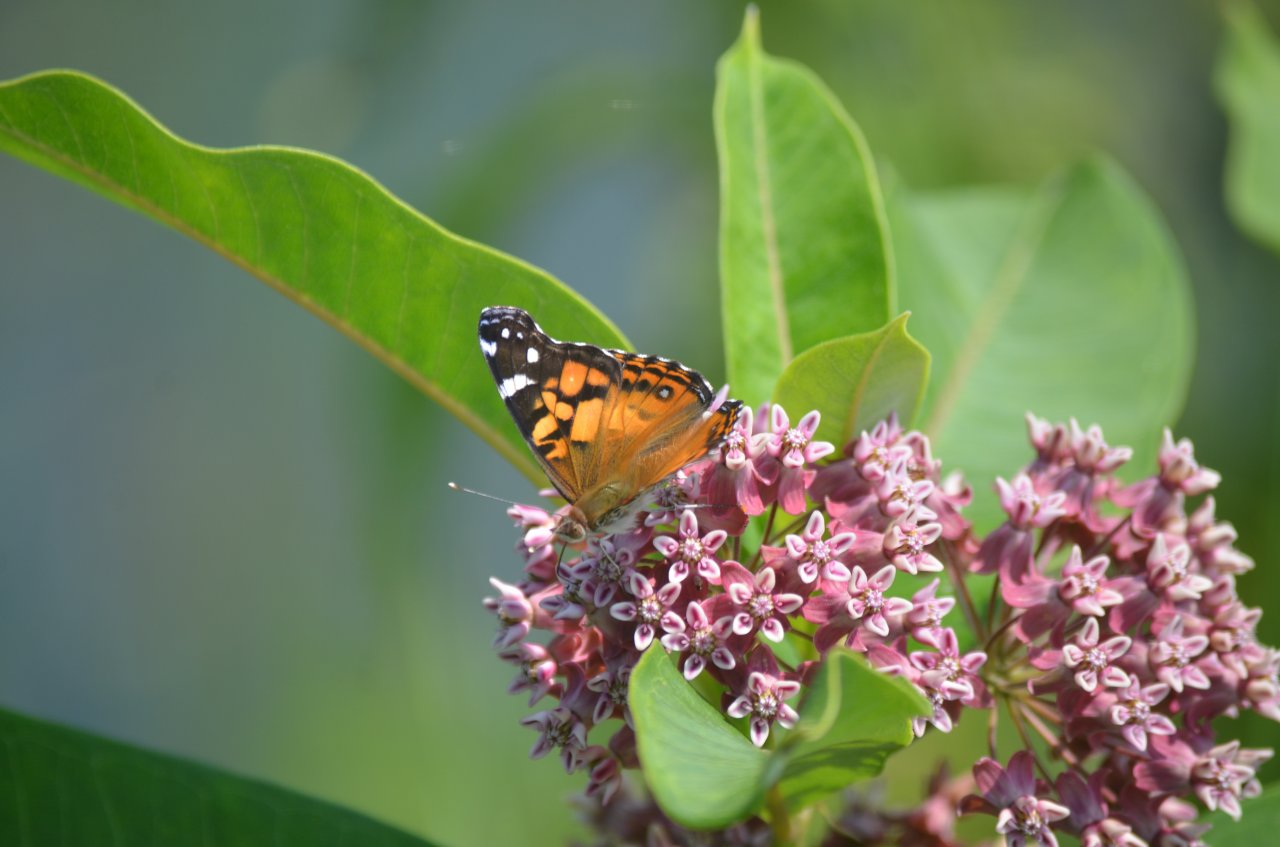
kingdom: Animalia
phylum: Arthropoda
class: Insecta
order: Lepidoptera
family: Nymphalidae
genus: Vanessa
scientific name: Vanessa virginiensis
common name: American Lady
